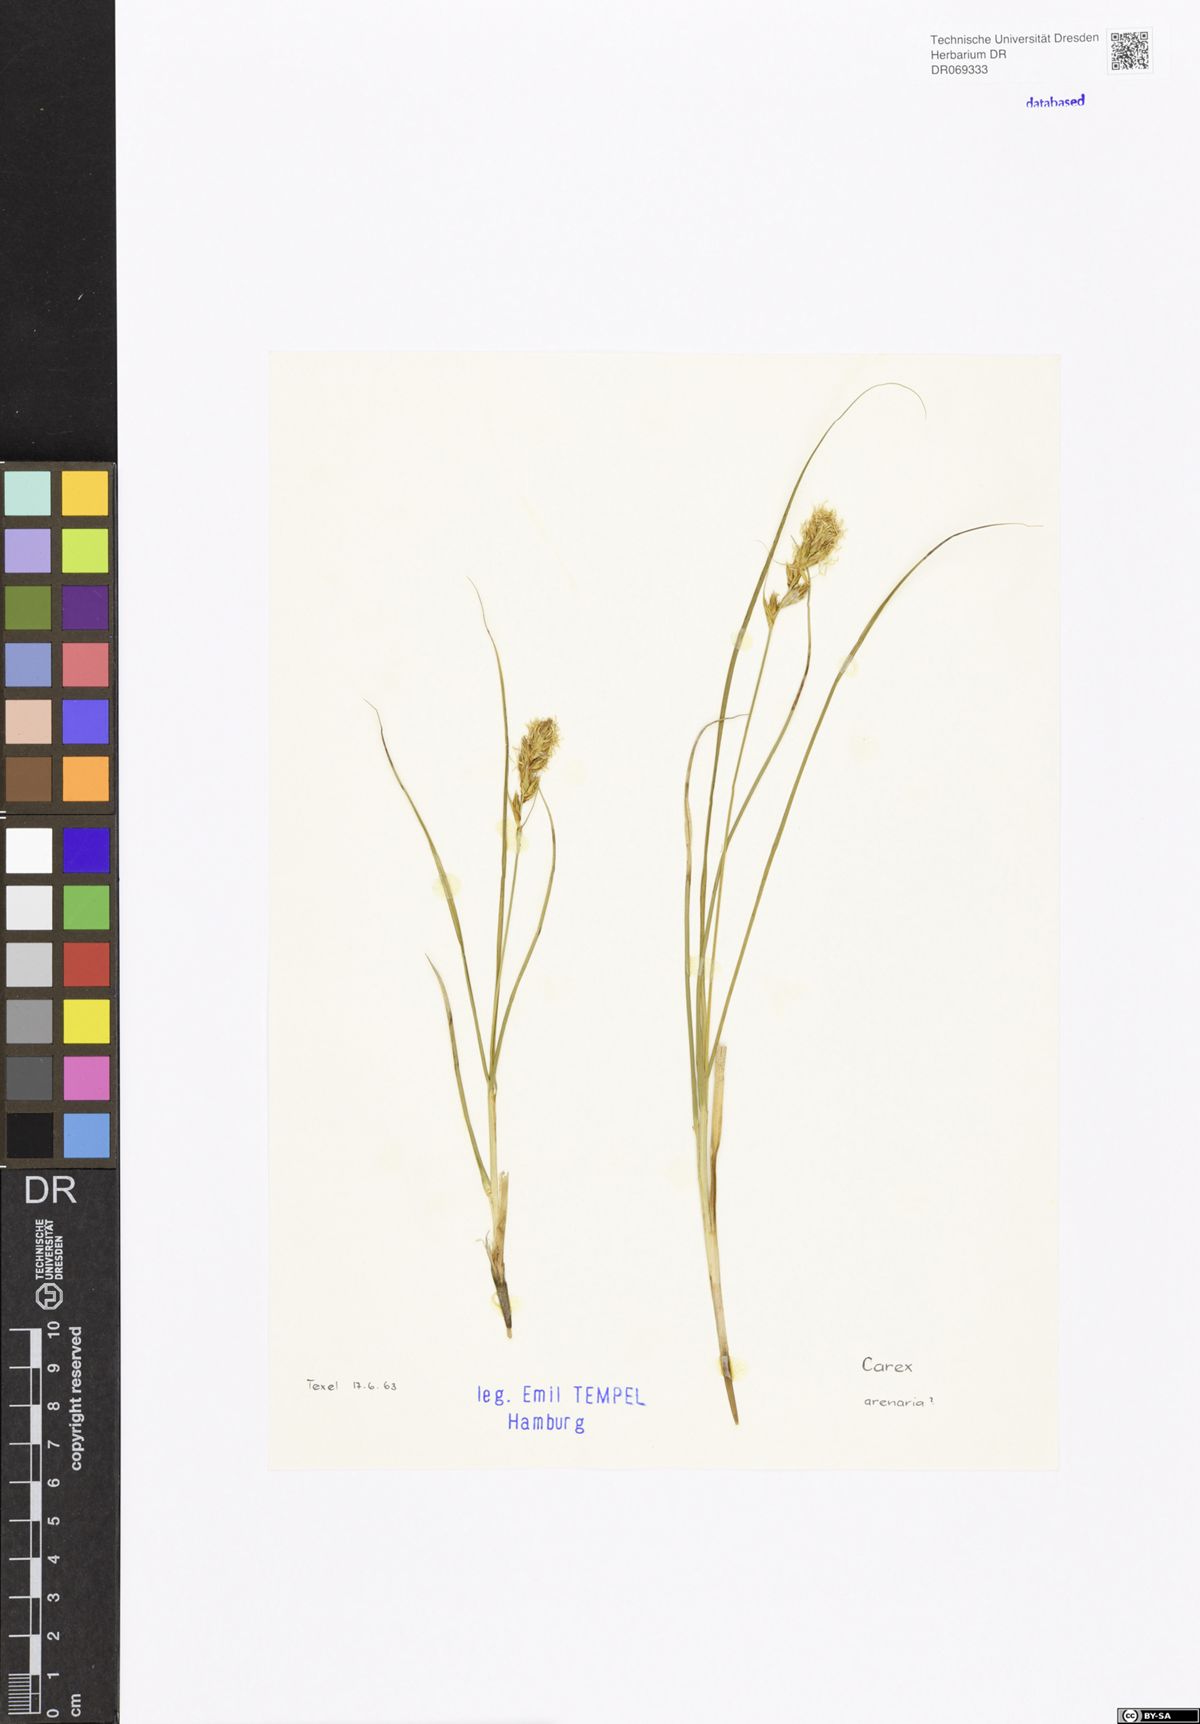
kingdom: Plantae
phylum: Tracheophyta
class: Liliopsida
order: Poales
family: Cyperaceae
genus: Carex
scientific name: Carex arenaria
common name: Sand sedge
